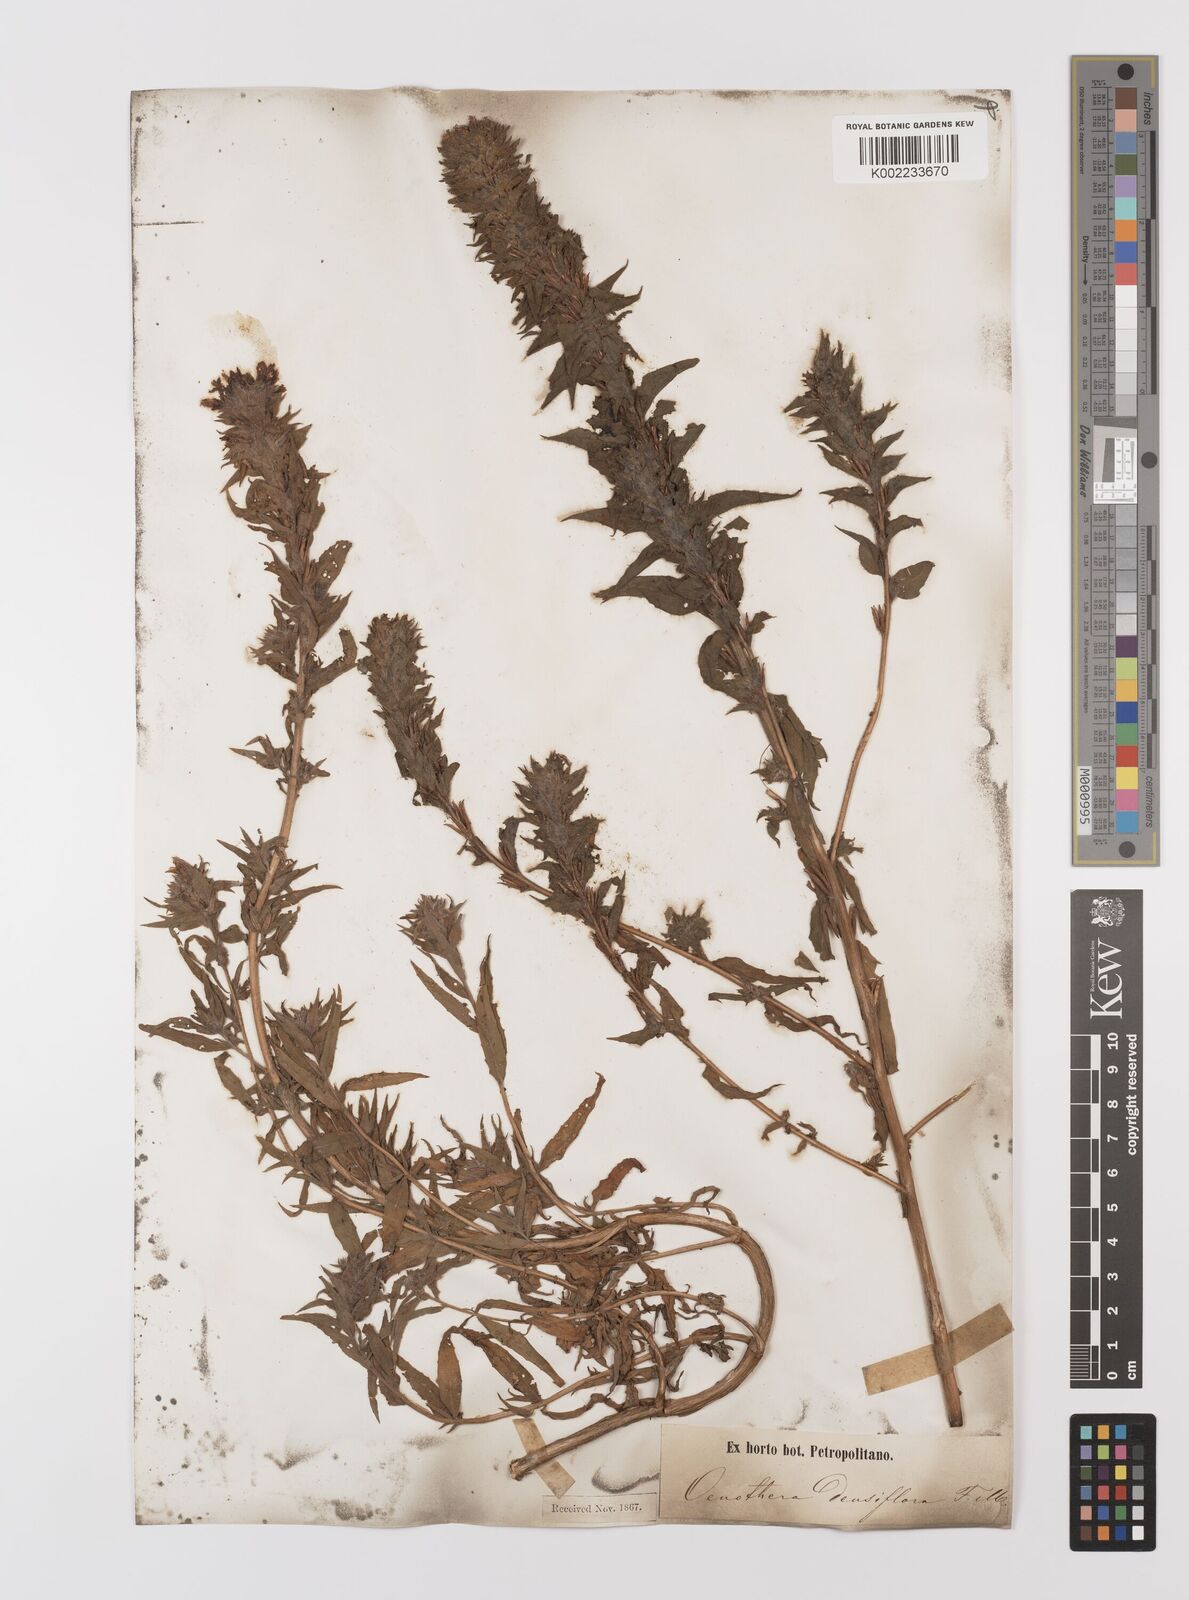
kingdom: Plantae
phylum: Tracheophyta
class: Magnoliopsida
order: Myrtales
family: Onagraceae
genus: Epilobium
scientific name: Epilobium densiflorum
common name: Dense spike-primrose
